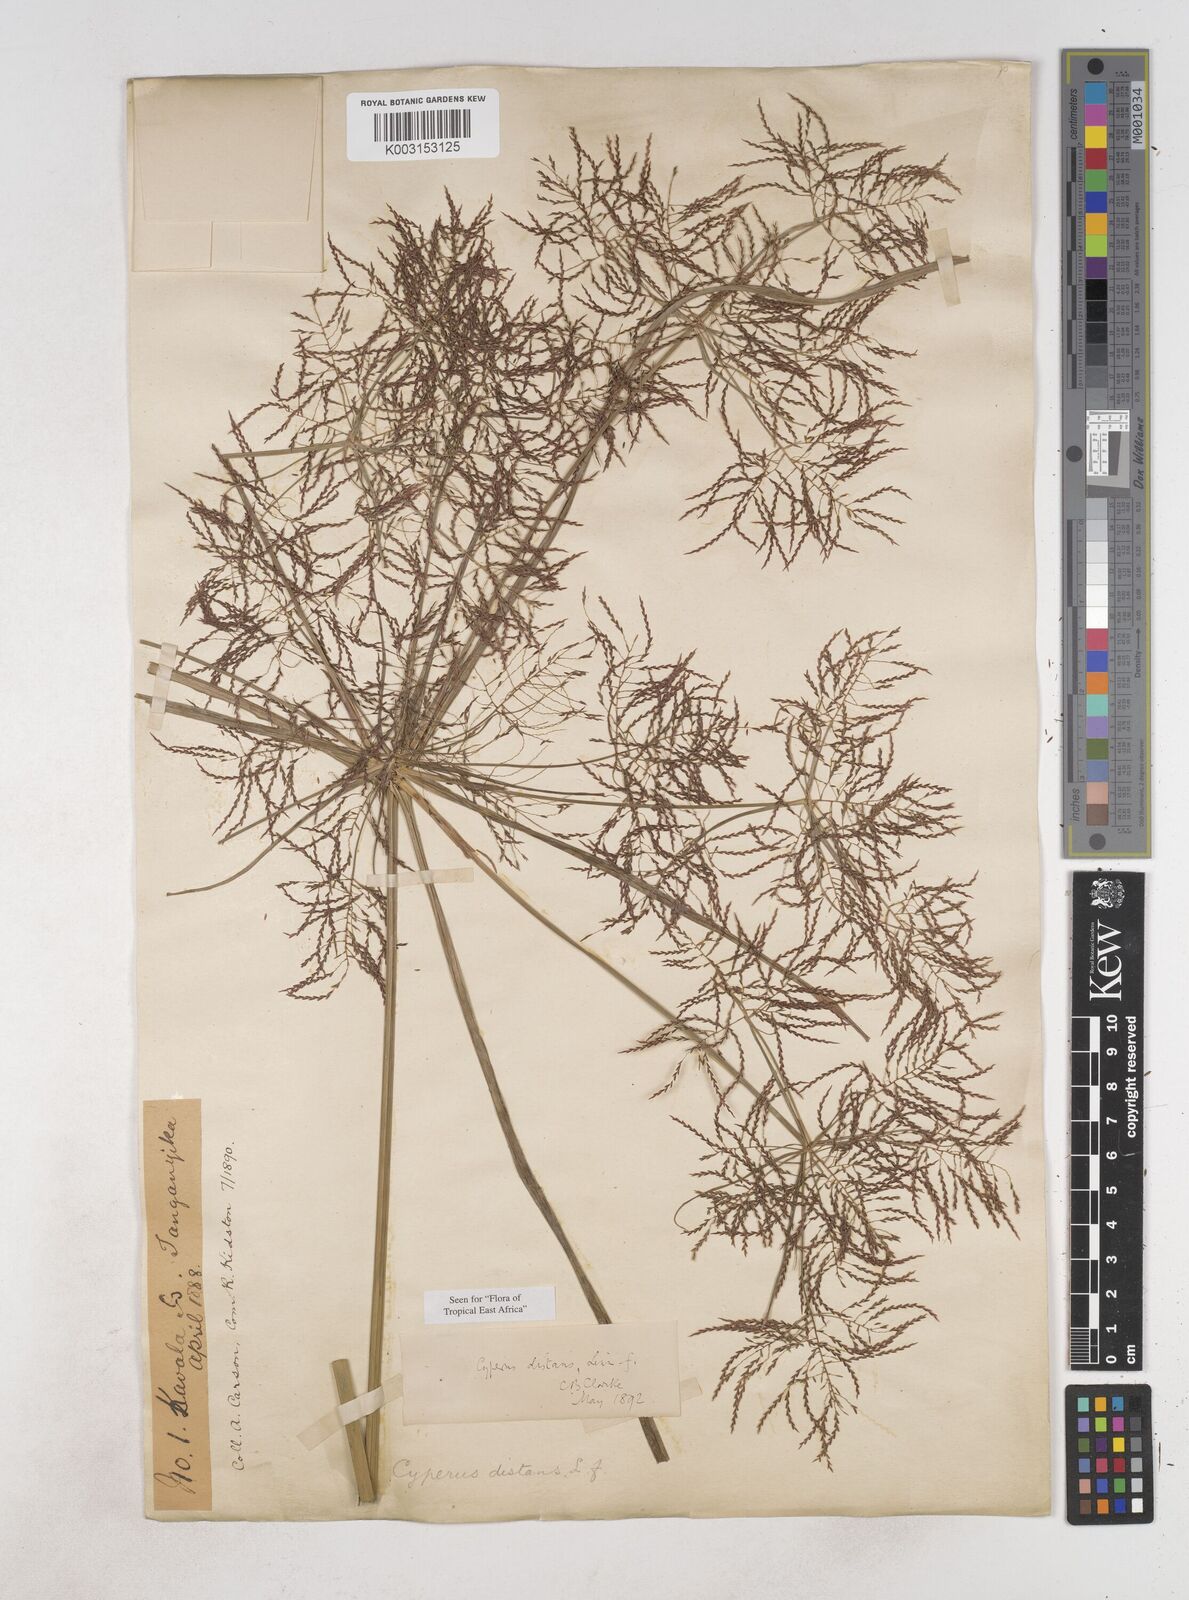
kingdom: Plantae
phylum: Tracheophyta
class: Liliopsida
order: Poales
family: Cyperaceae
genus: Cyperus
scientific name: Cyperus distans
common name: Slender cyperus
